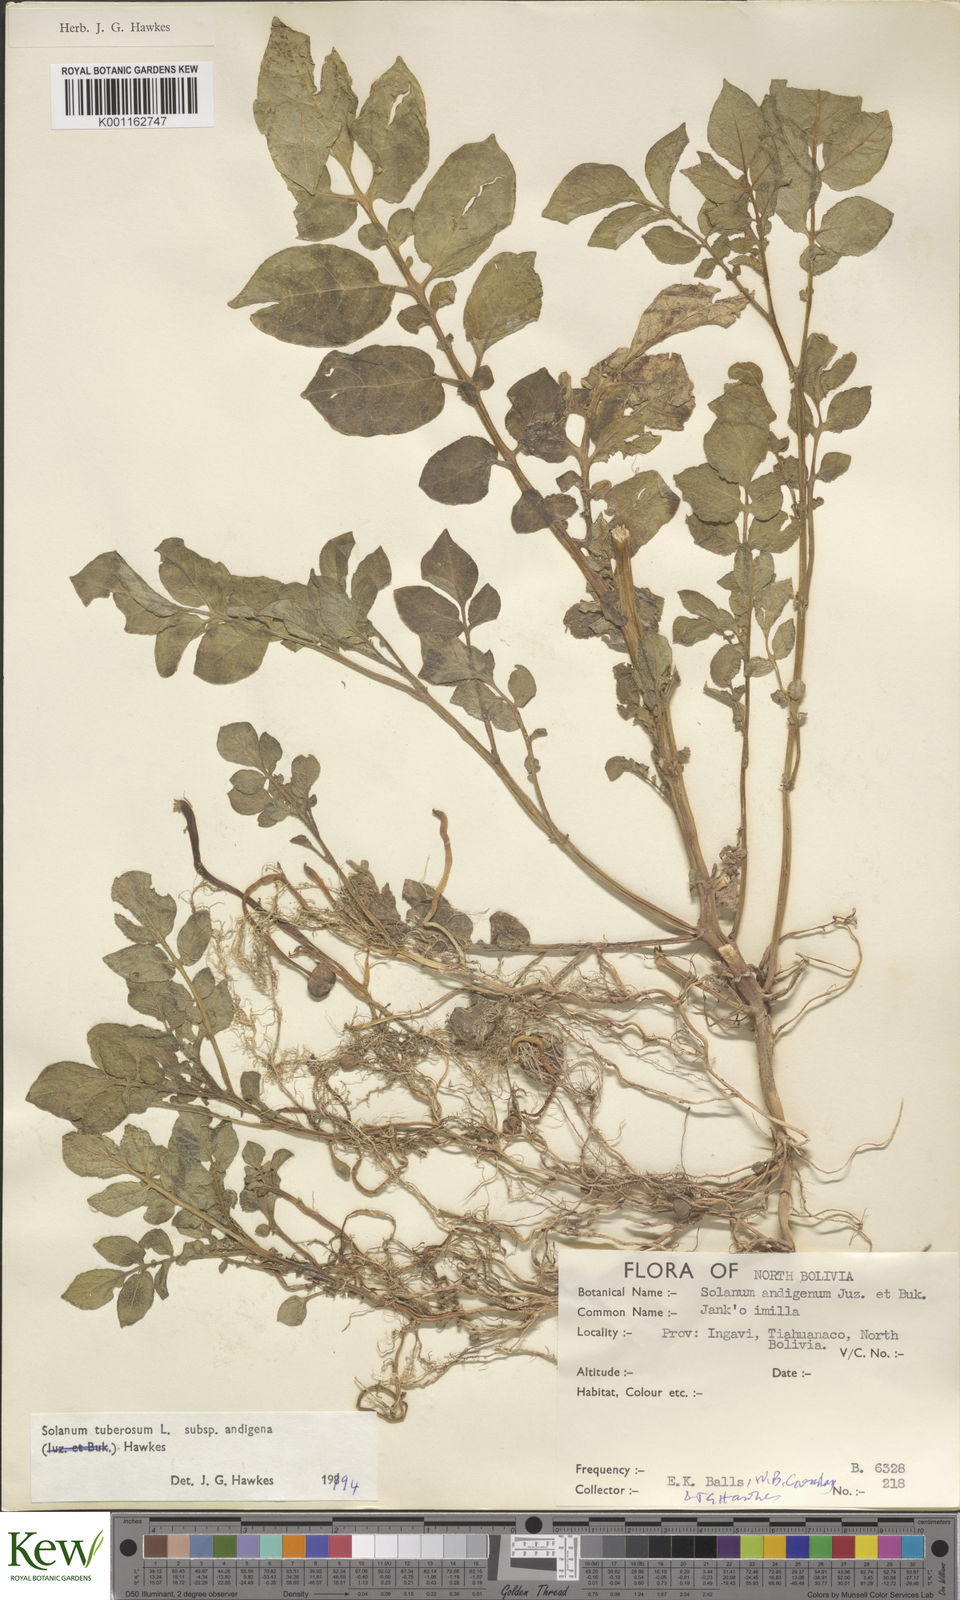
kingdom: Plantae
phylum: Tracheophyta
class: Magnoliopsida
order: Solanales
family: Solanaceae
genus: Solanum
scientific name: Solanum tuberosum
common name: Potato
